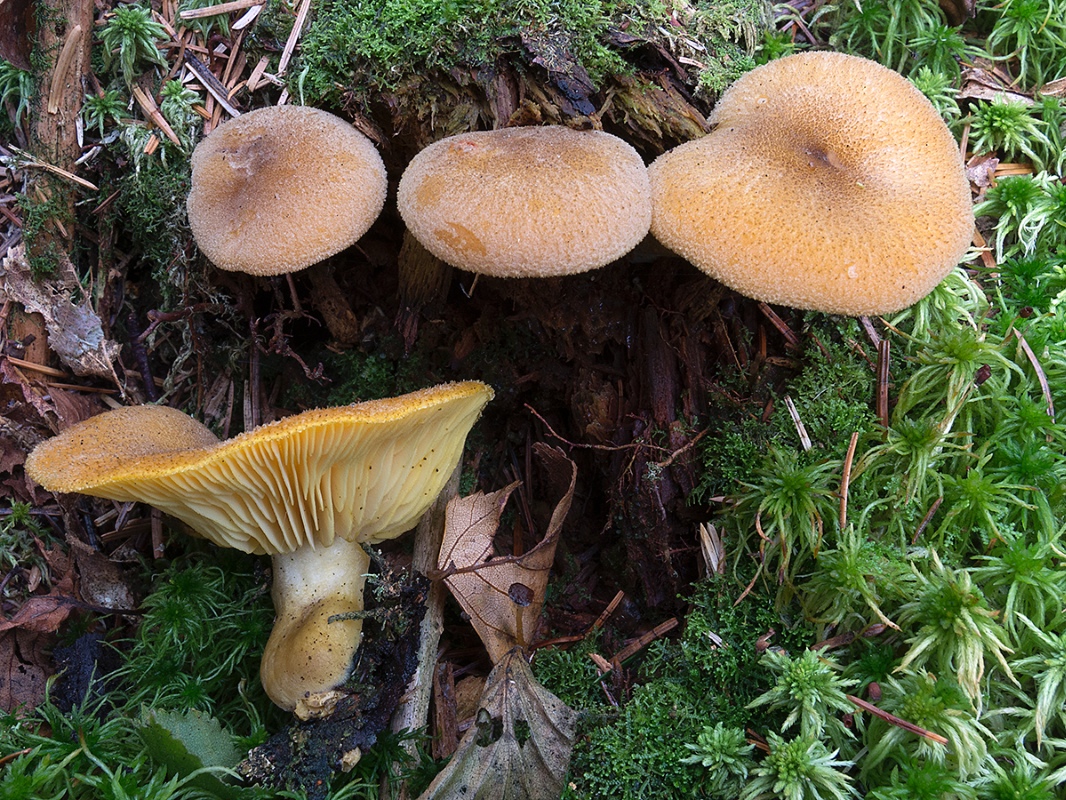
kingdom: Fungi
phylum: Basidiomycota
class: Agaricomycetes
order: Agaricales
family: Tricholomataceae
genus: Tricholomopsis
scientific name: Tricholomopsis decora
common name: sortskællet væbnerhat
